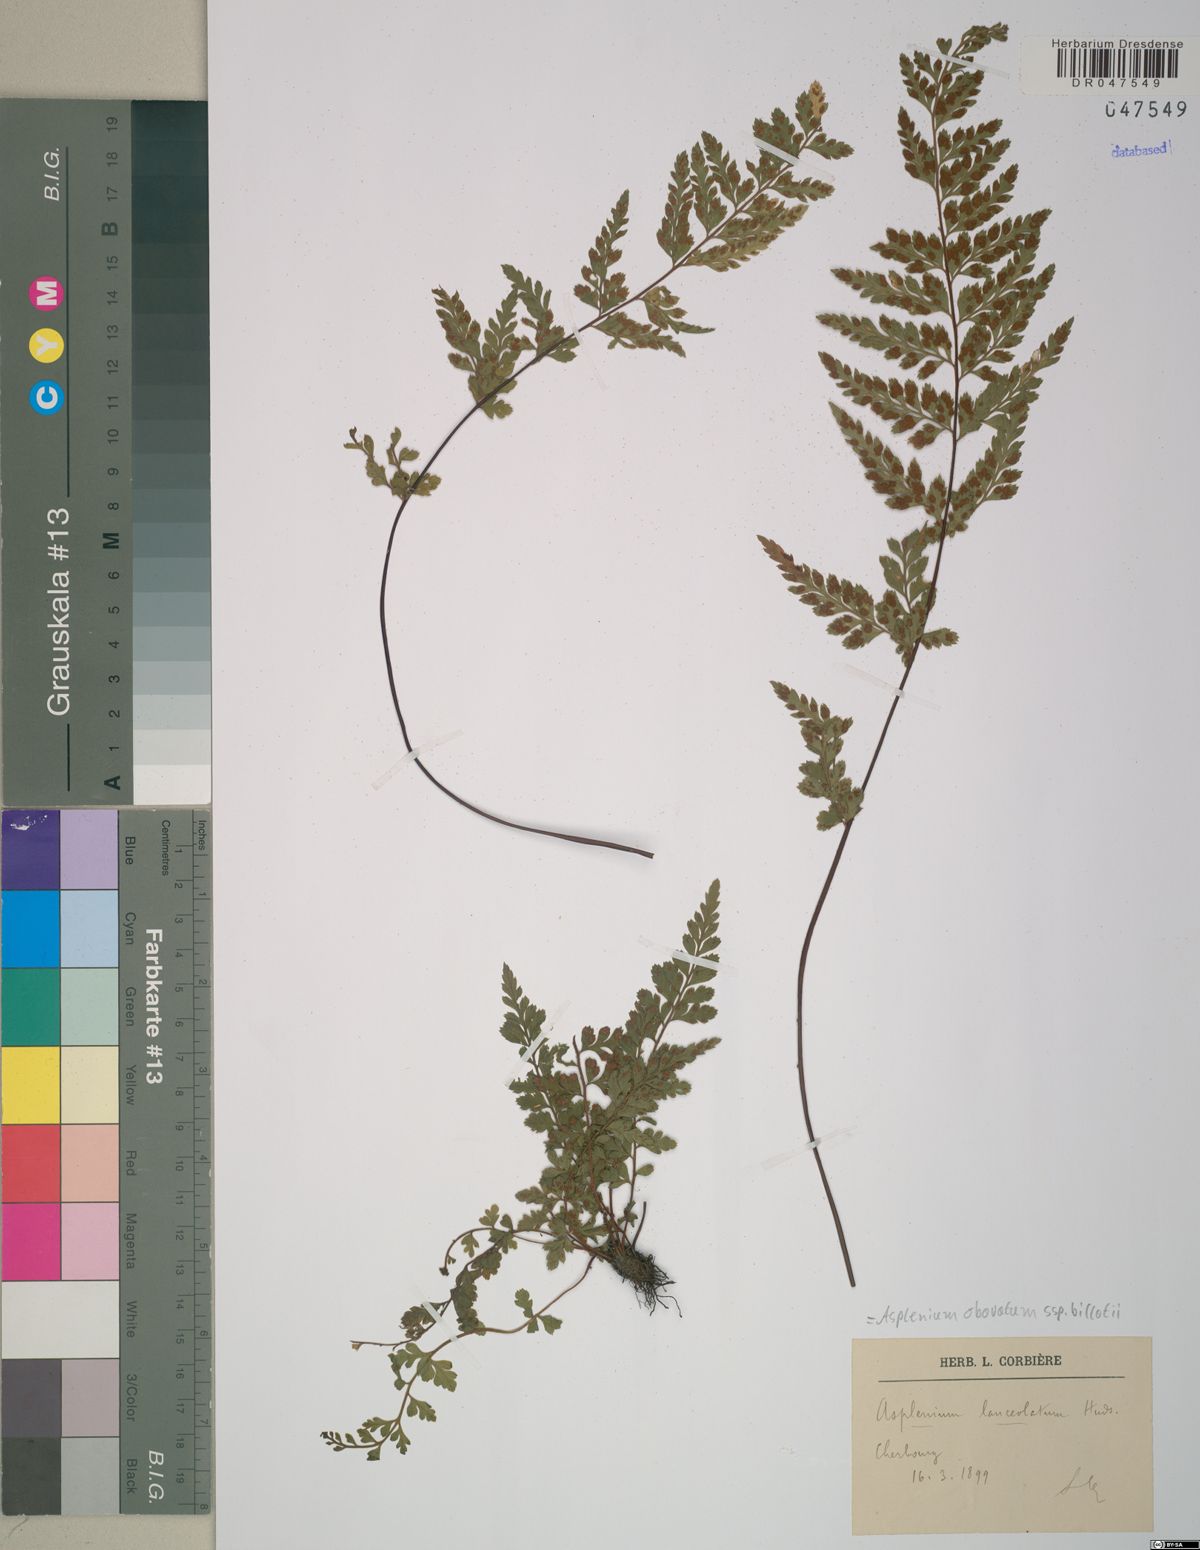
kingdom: Plantae
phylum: Tracheophyta
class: Polypodiopsida
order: Polypodiales
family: Aspleniaceae
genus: Asplenium
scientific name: Asplenium obovatum
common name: Lanceolate spleenwort
